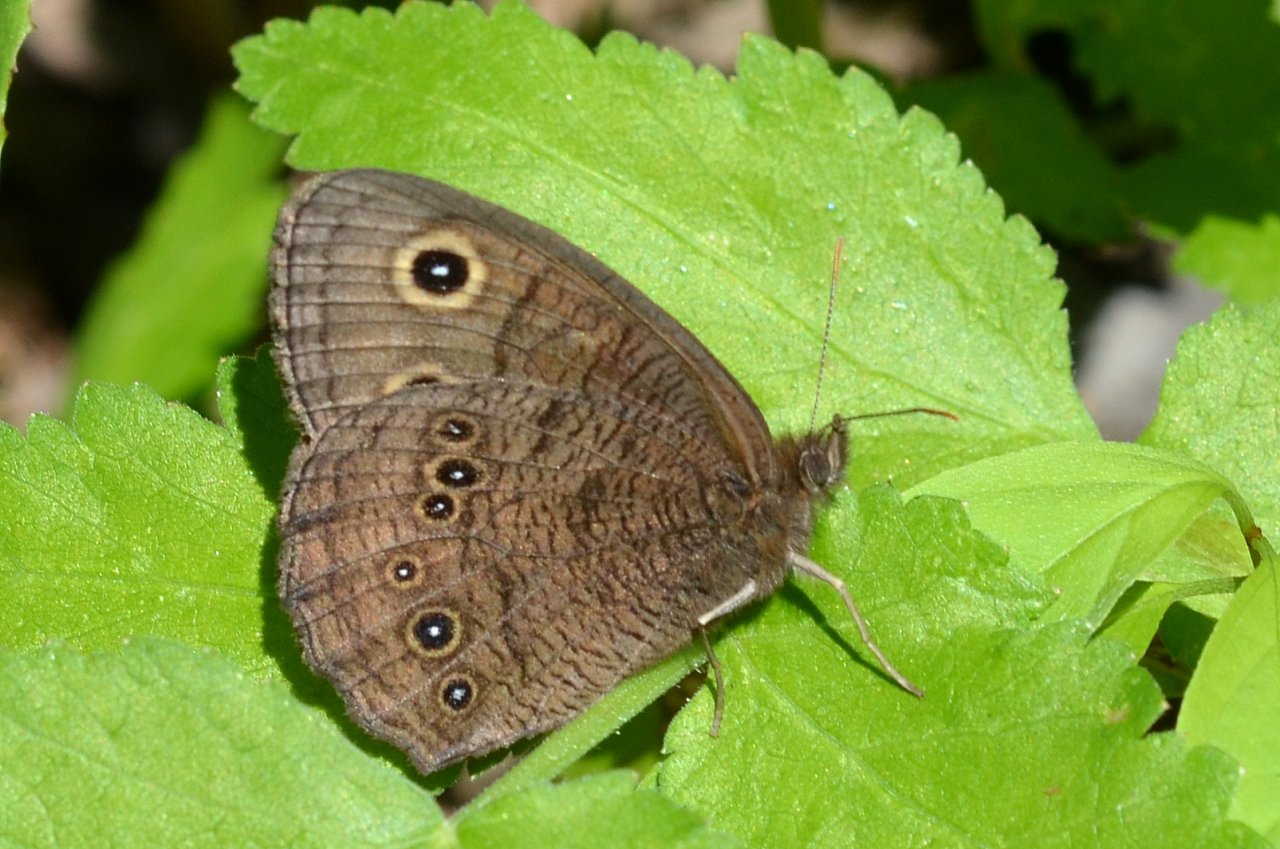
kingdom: Animalia
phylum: Arthropoda
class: Insecta
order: Lepidoptera
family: Nymphalidae
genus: Cercyonis
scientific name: Cercyonis pegala
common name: Common Wood-Nymph
